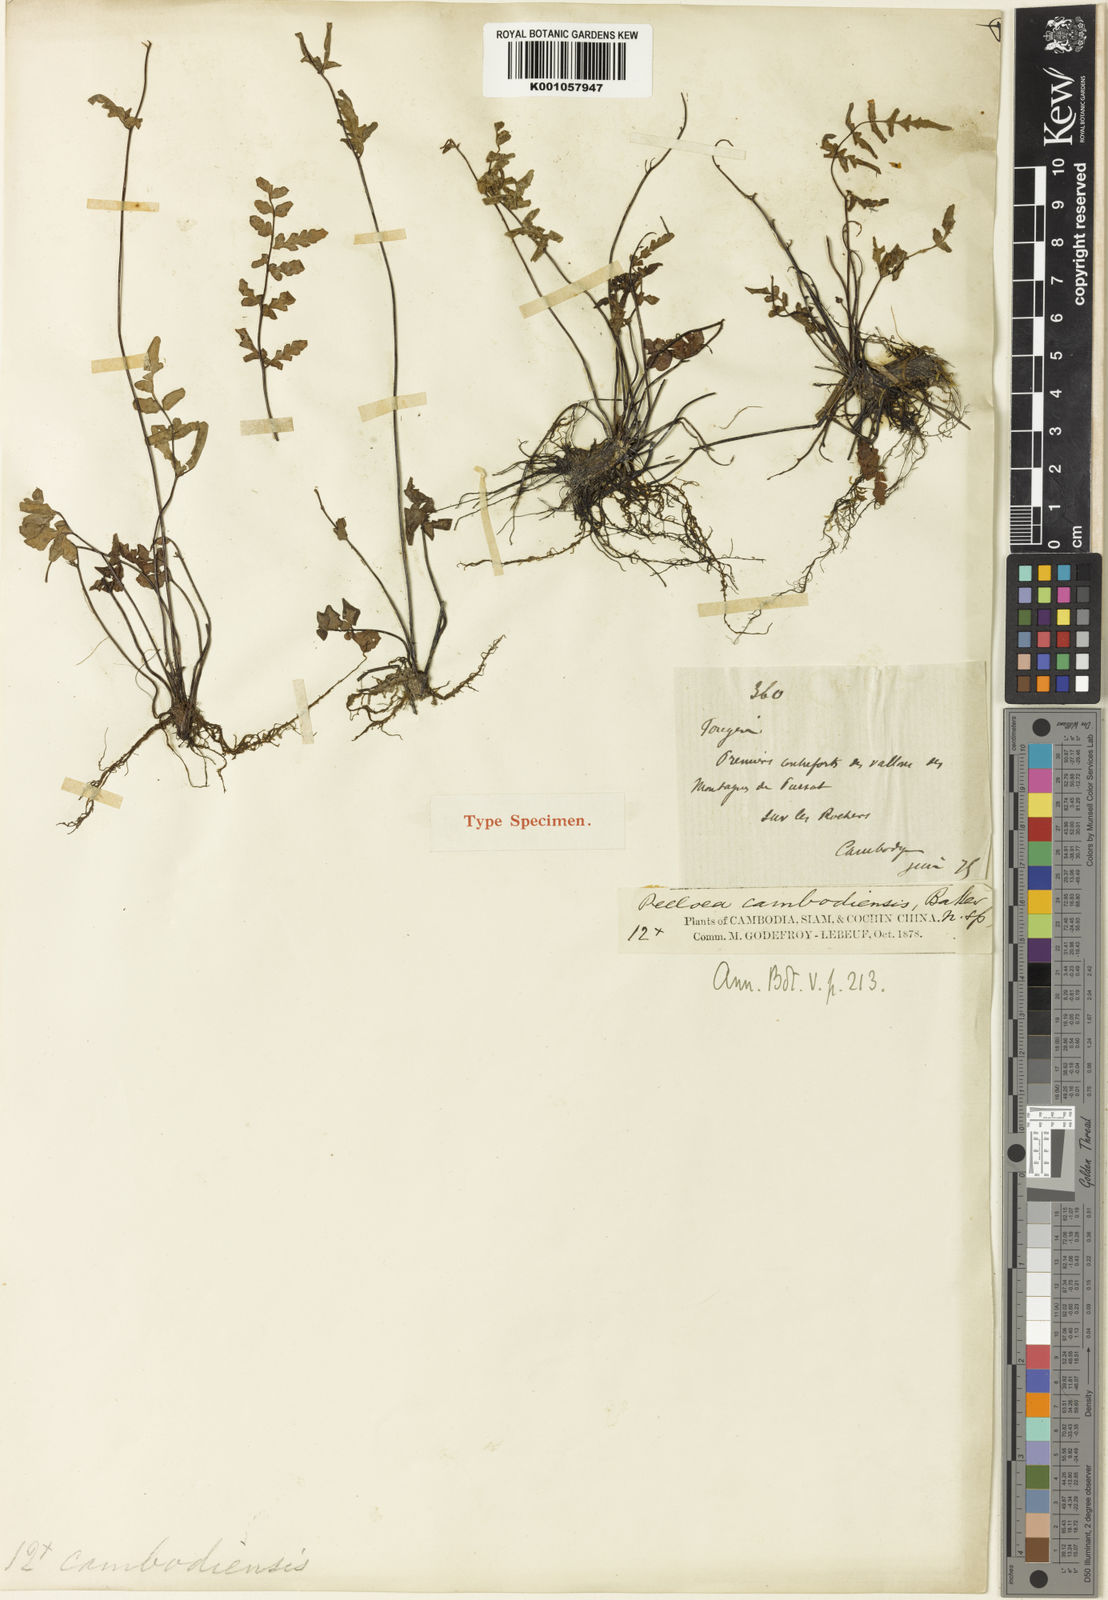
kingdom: Plantae
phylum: Tracheophyta
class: Polypodiopsida
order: Polypodiales
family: Pteridaceae
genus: Oeosporangium
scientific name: Oeosporangium belangeri
